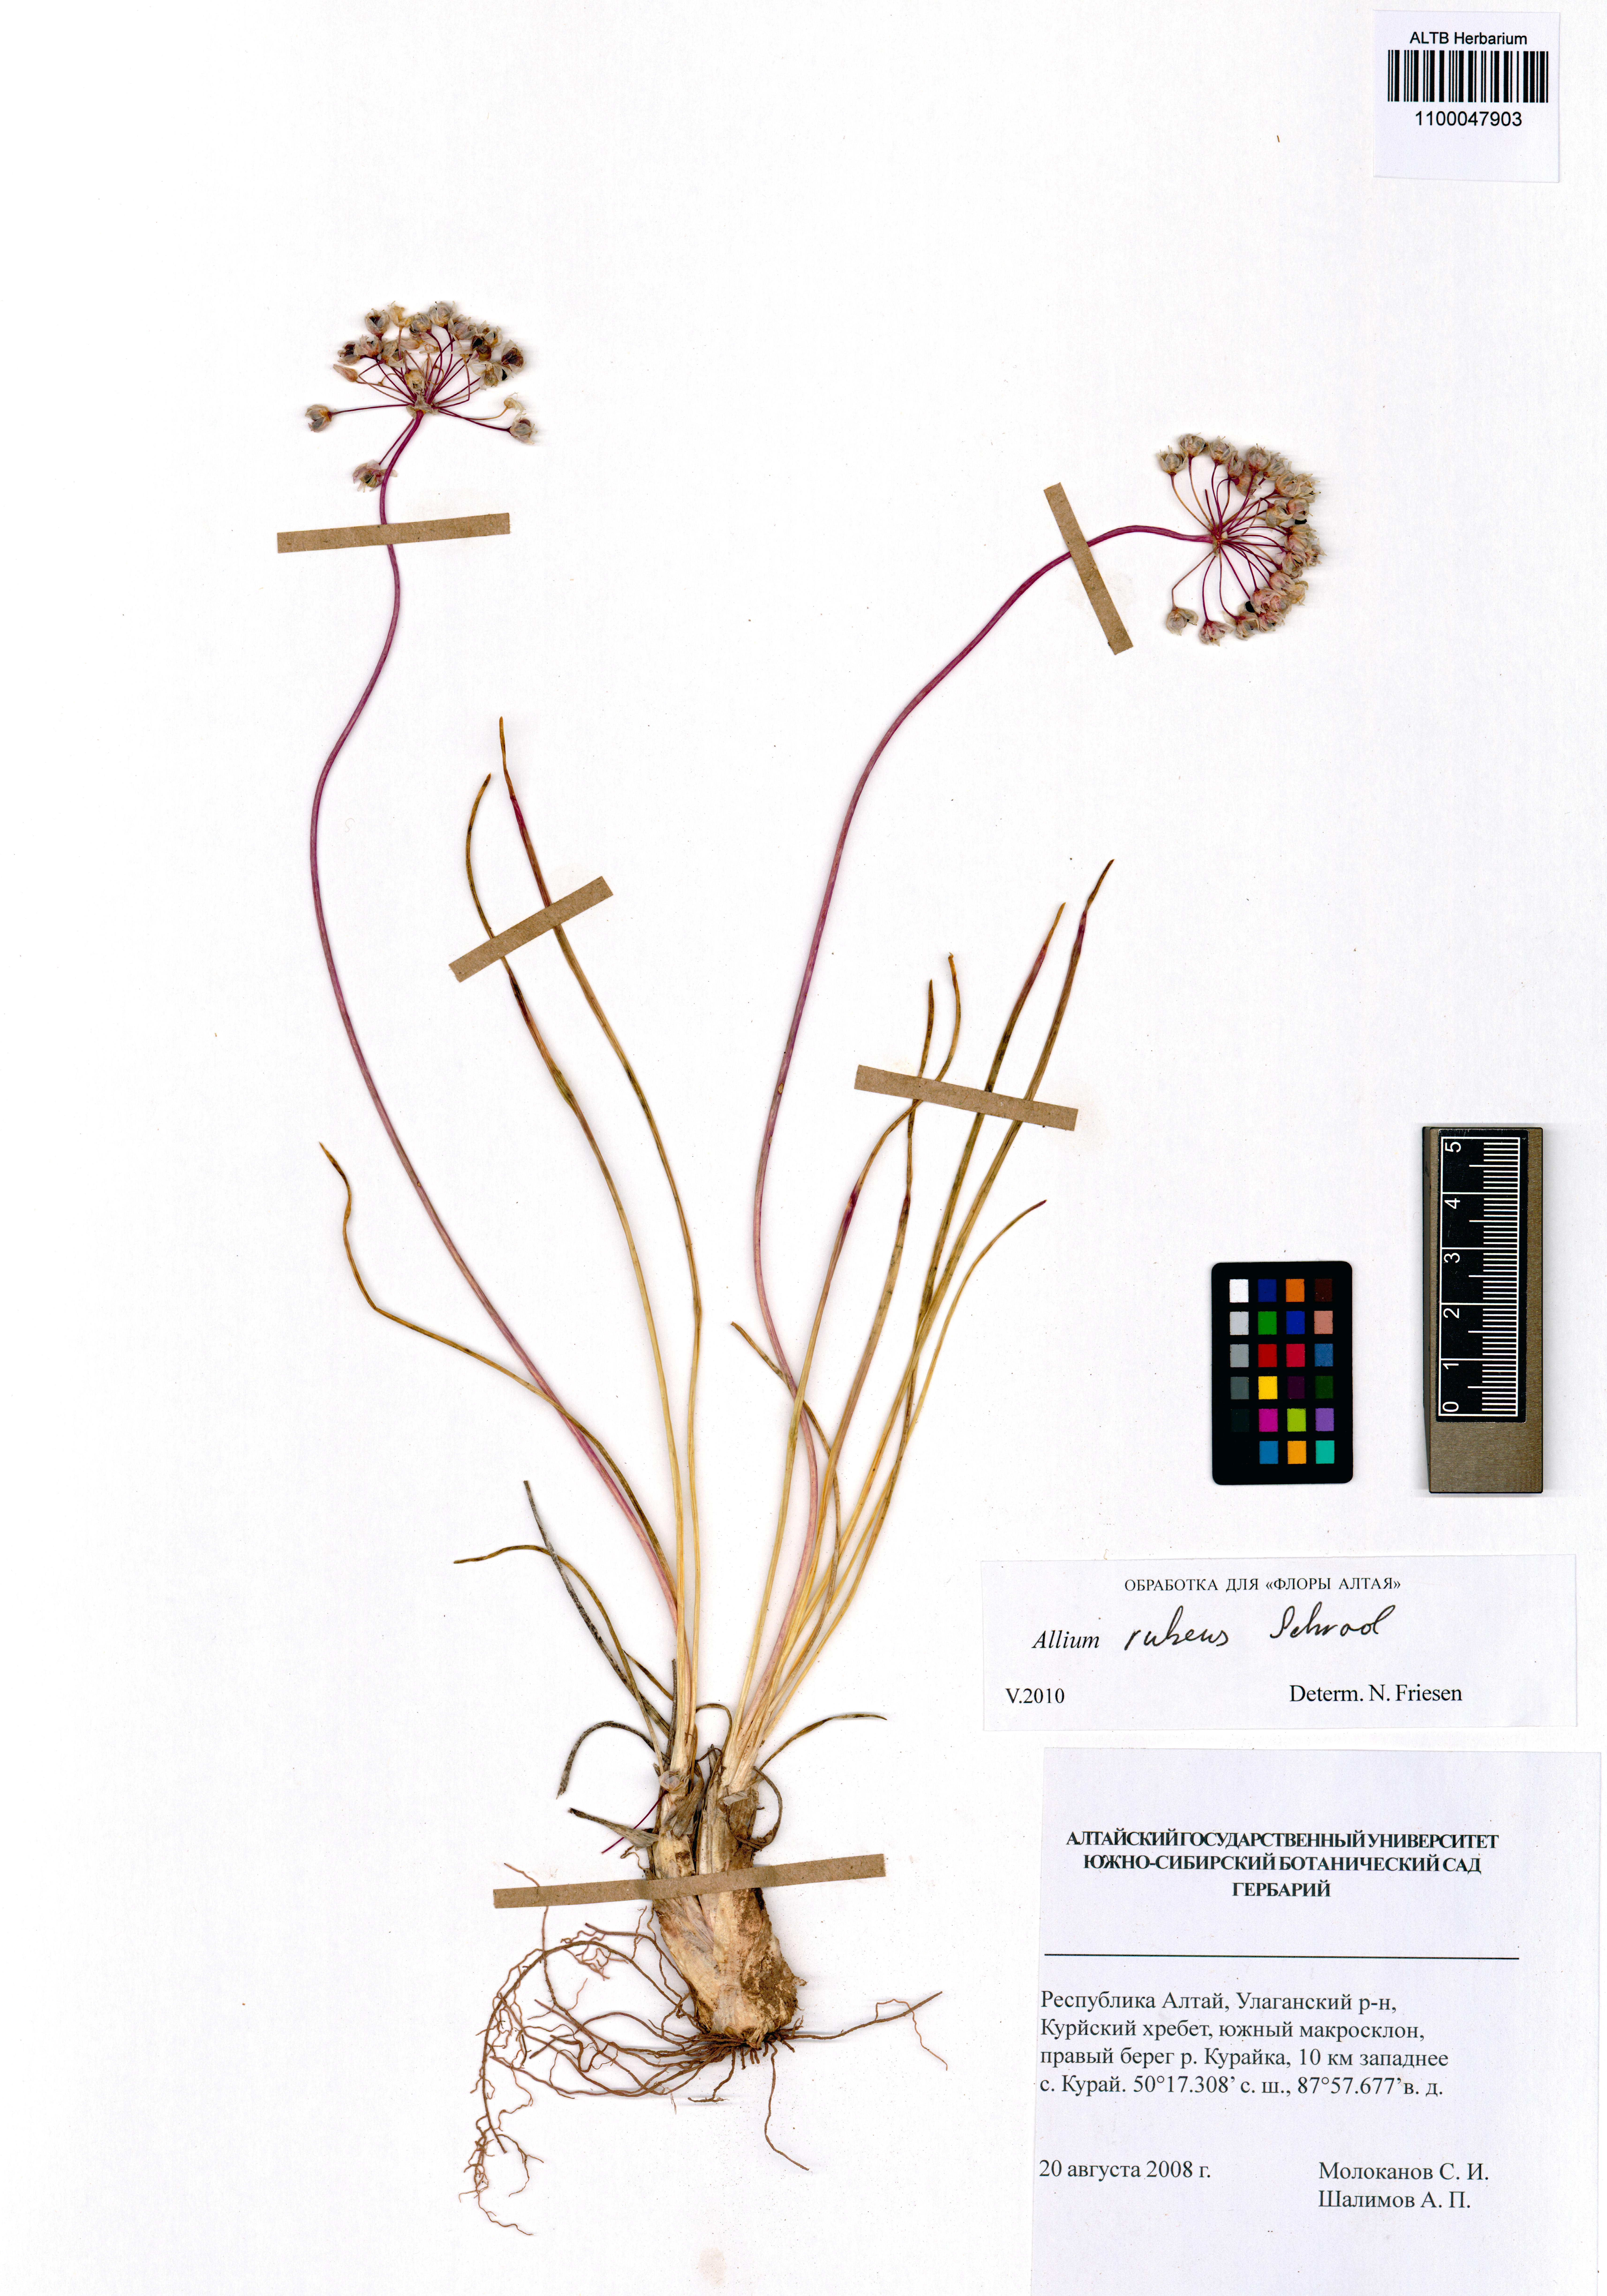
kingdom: Plantae
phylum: Tracheophyta
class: Liliopsida
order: Asparagales
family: Amaryllidaceae
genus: Allium
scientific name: Allium rubens
